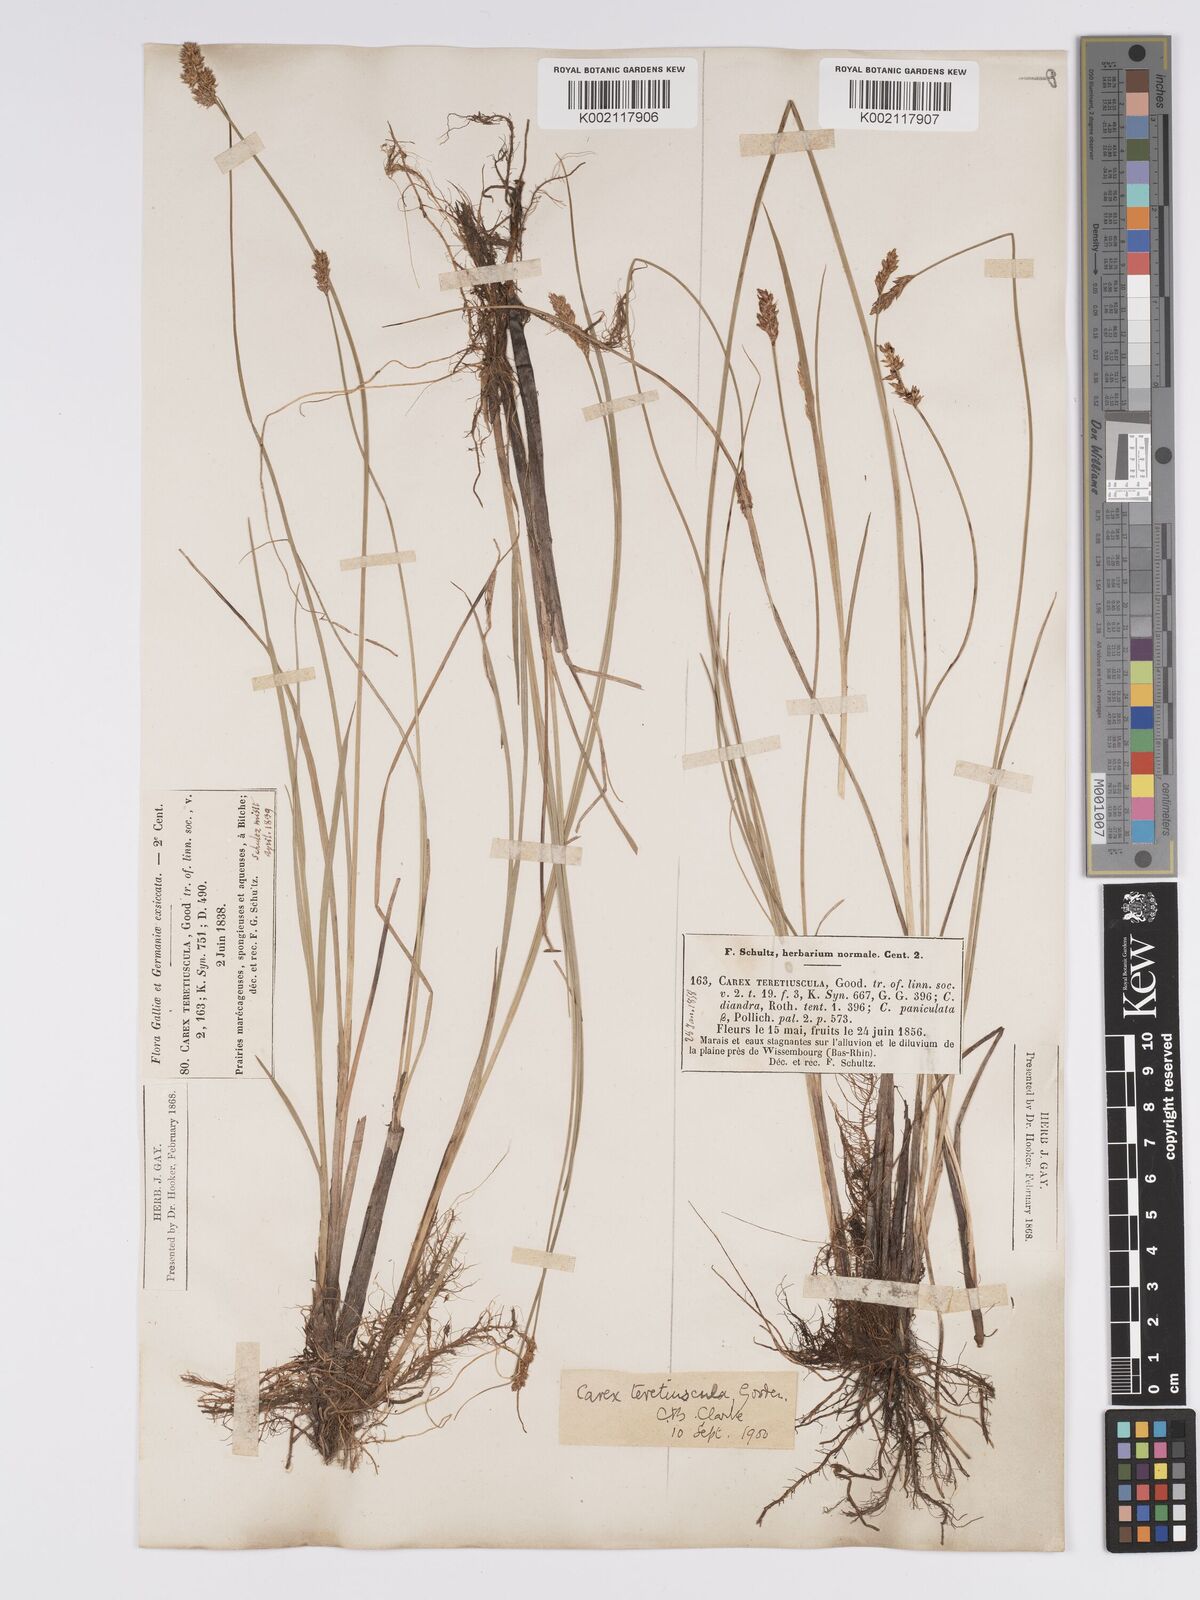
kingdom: Plantae
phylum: Tracheophyta
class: Liliopsida
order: Poales
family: Cyperaceae
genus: Carex
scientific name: Carex diandra
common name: Lesser tussock-sedge
